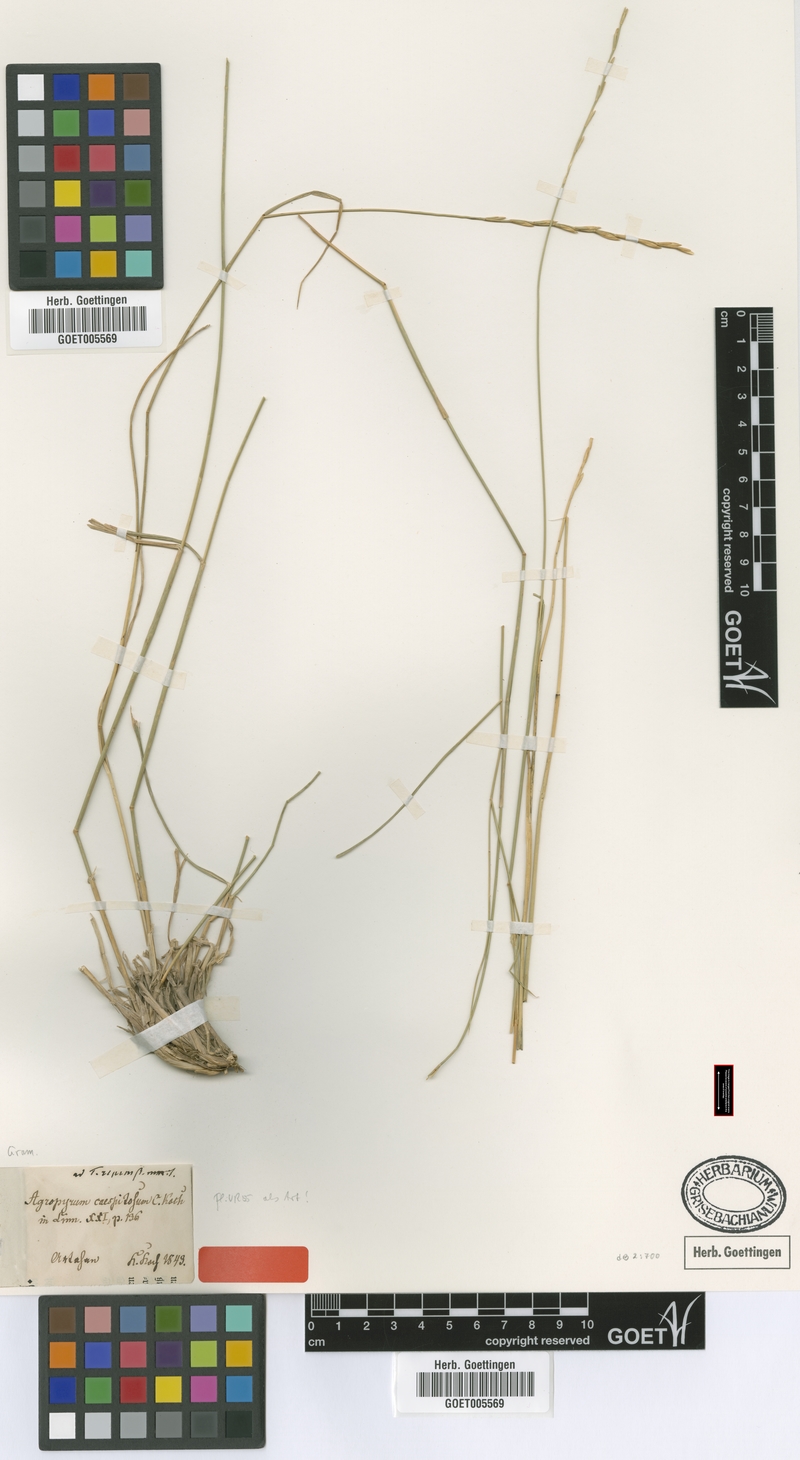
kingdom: Plantae
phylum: Tracheophyta
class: Liliopsida
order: Poales
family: Poaceae
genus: Elymus
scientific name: Elymus nodosus
